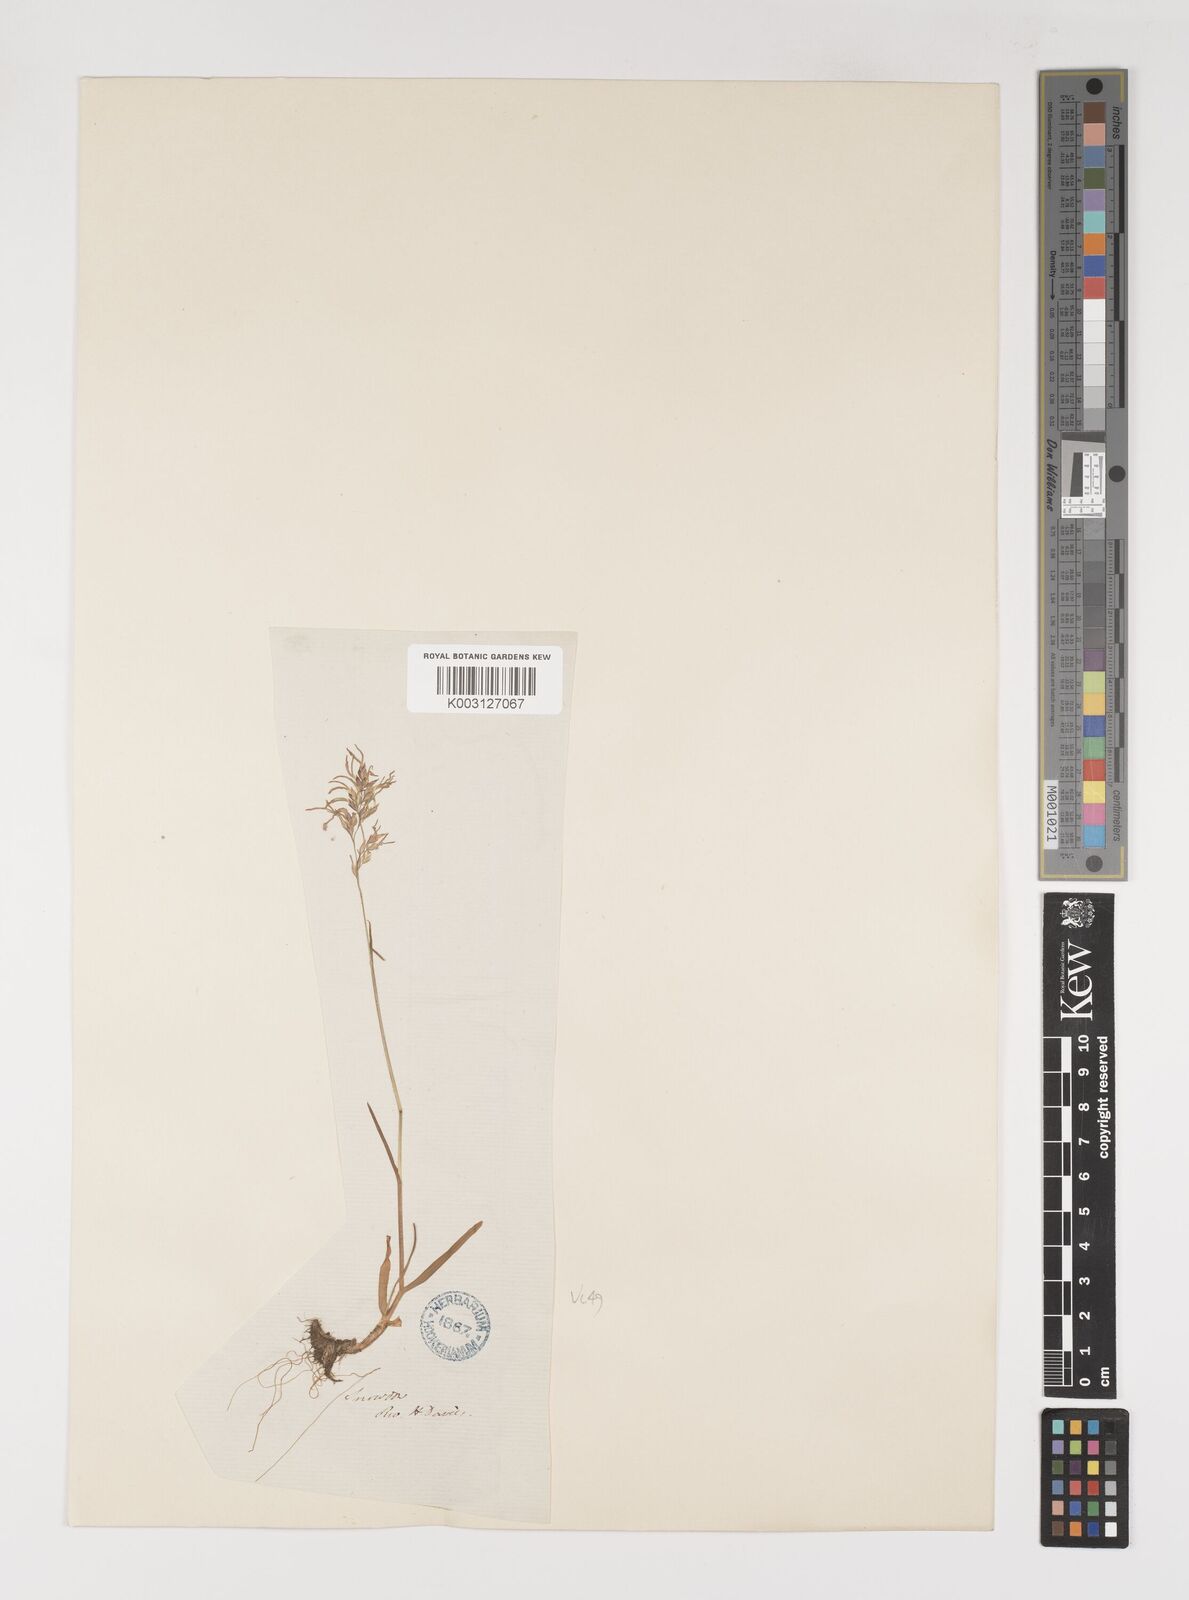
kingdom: Plantae
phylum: Tracheophyta
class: Liliopsida
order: Poales
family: Poaceae
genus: Poa
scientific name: Poa alpina
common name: Alpine bluegrass
